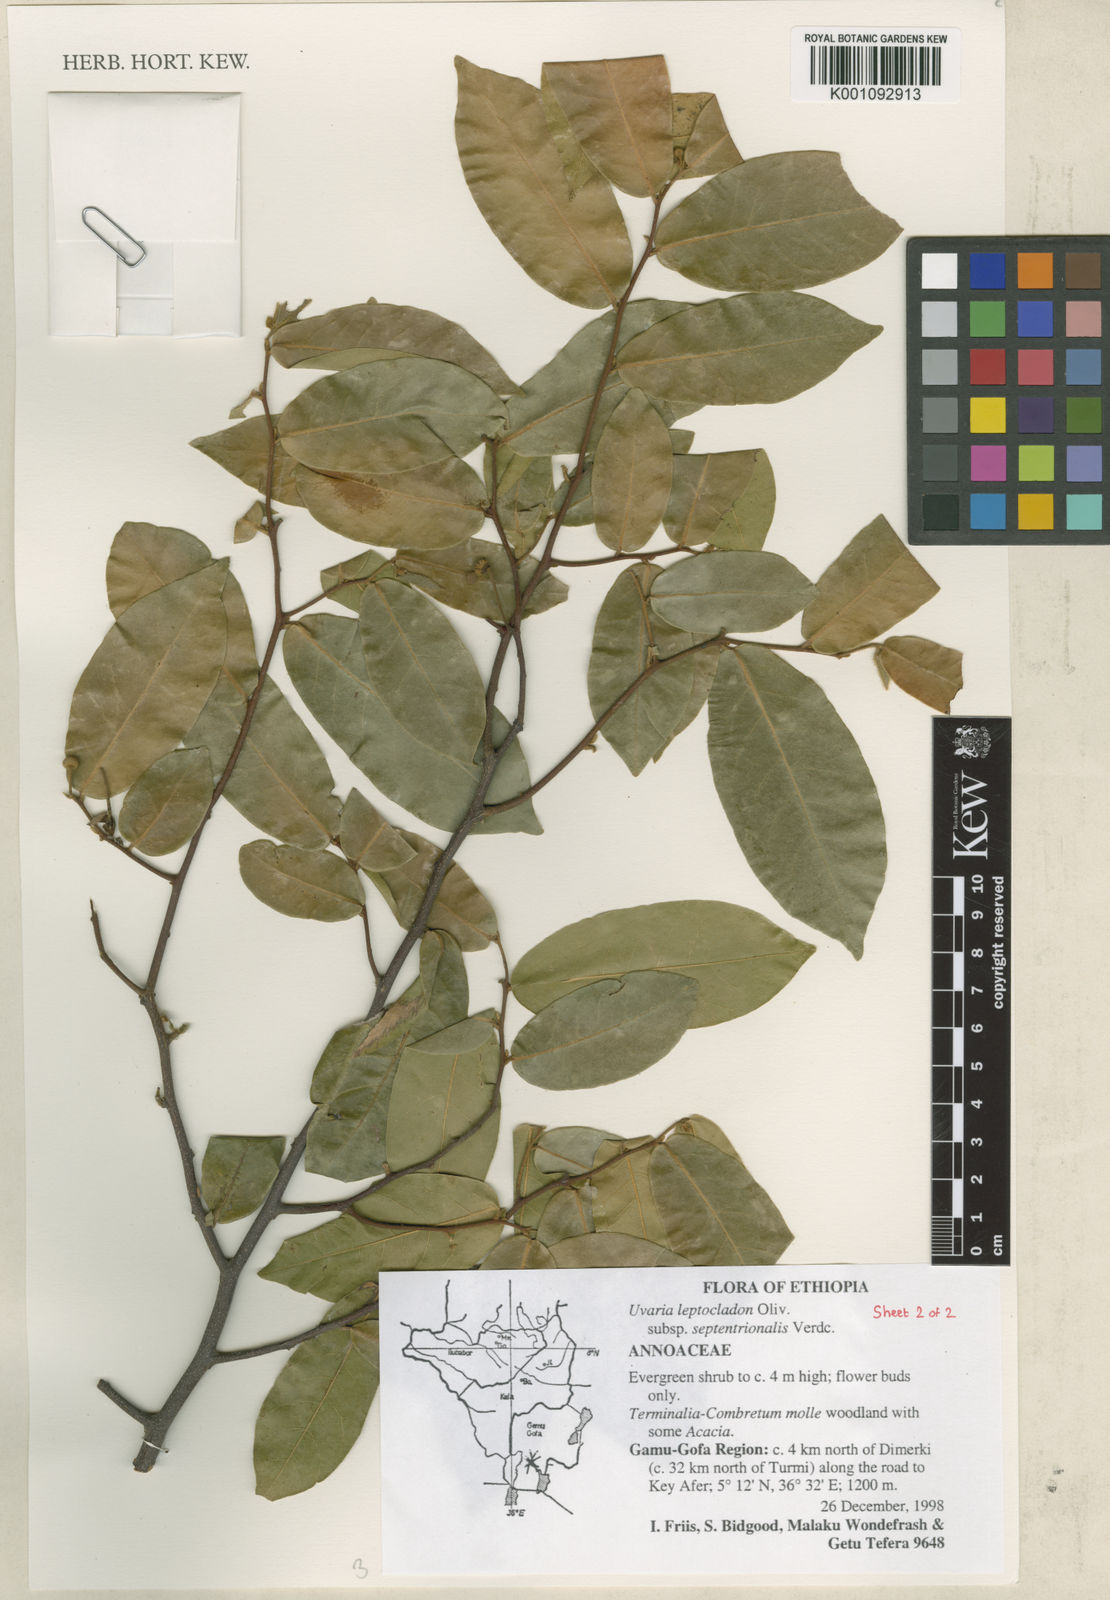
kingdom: Plantae
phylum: Tracheophyta
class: Magnoliopsida
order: Magnoliales
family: Annonaceae
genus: Uvaria
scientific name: Uvaria leptocladon
